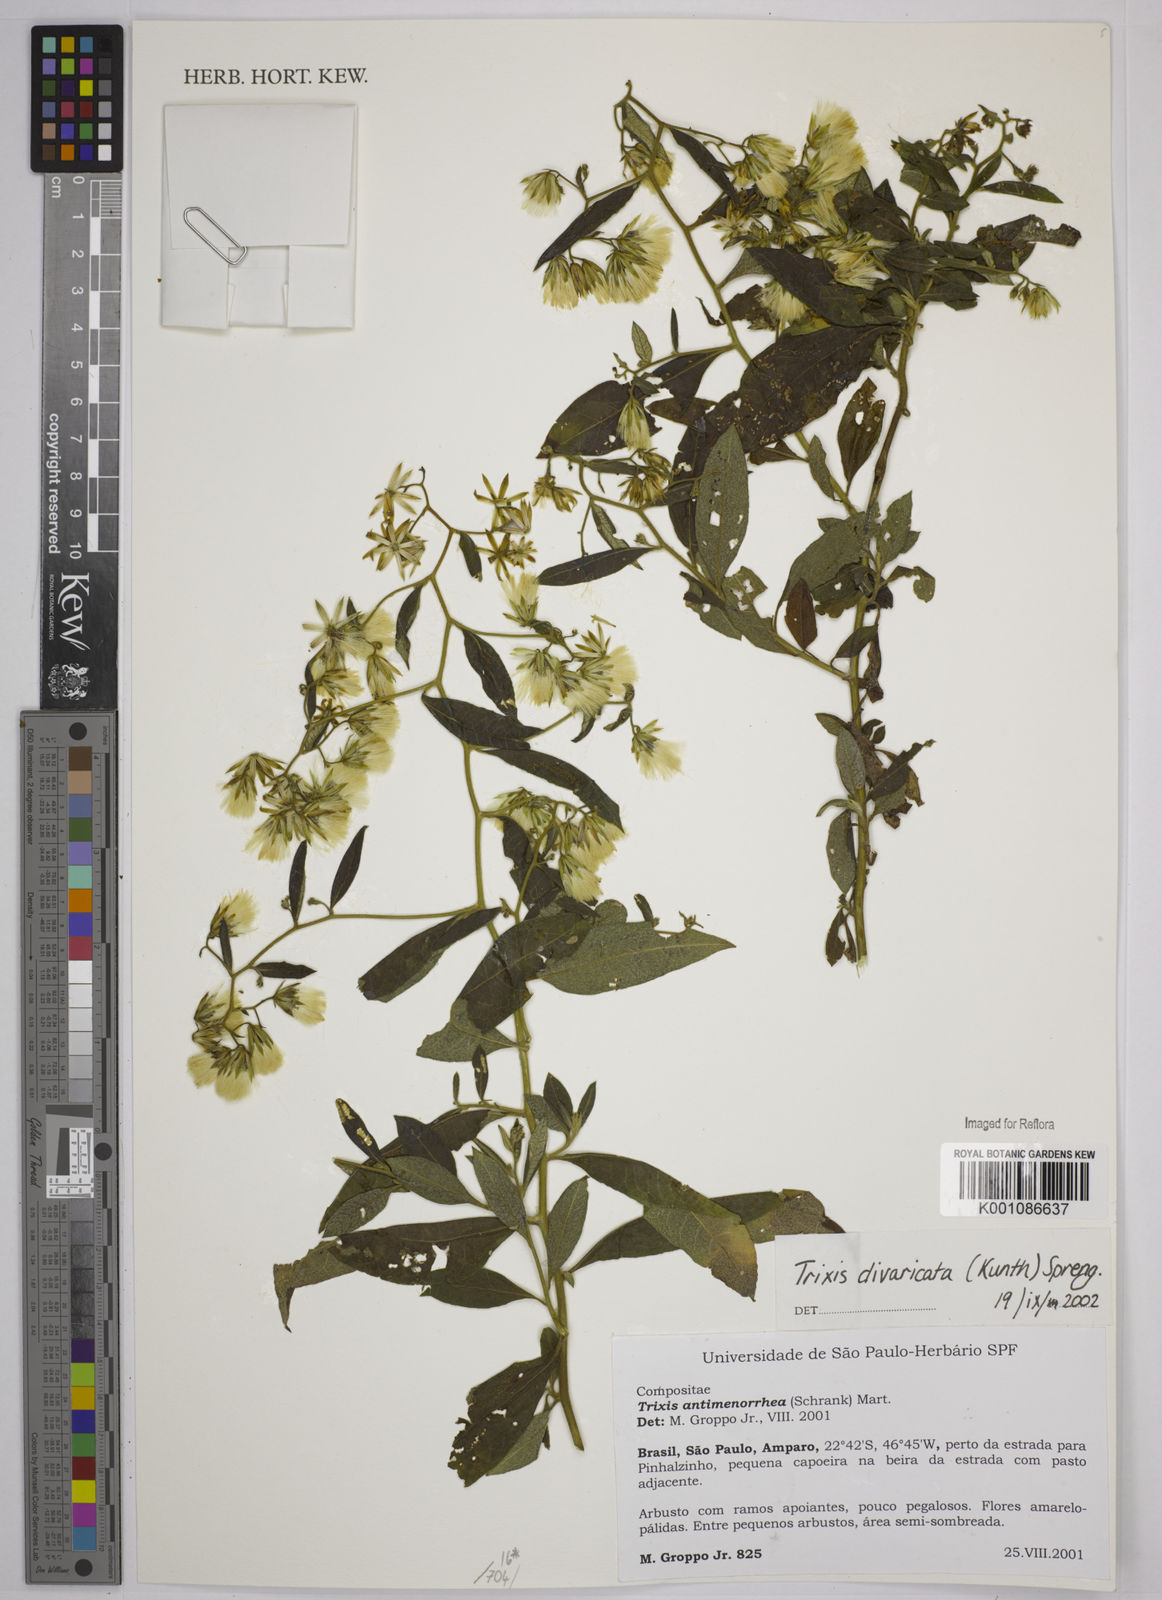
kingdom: Plantae
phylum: Tracheophyta
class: Magnoliopsida
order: Asterales
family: Asteraceae
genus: Trixis
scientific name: Trixis divaricata
